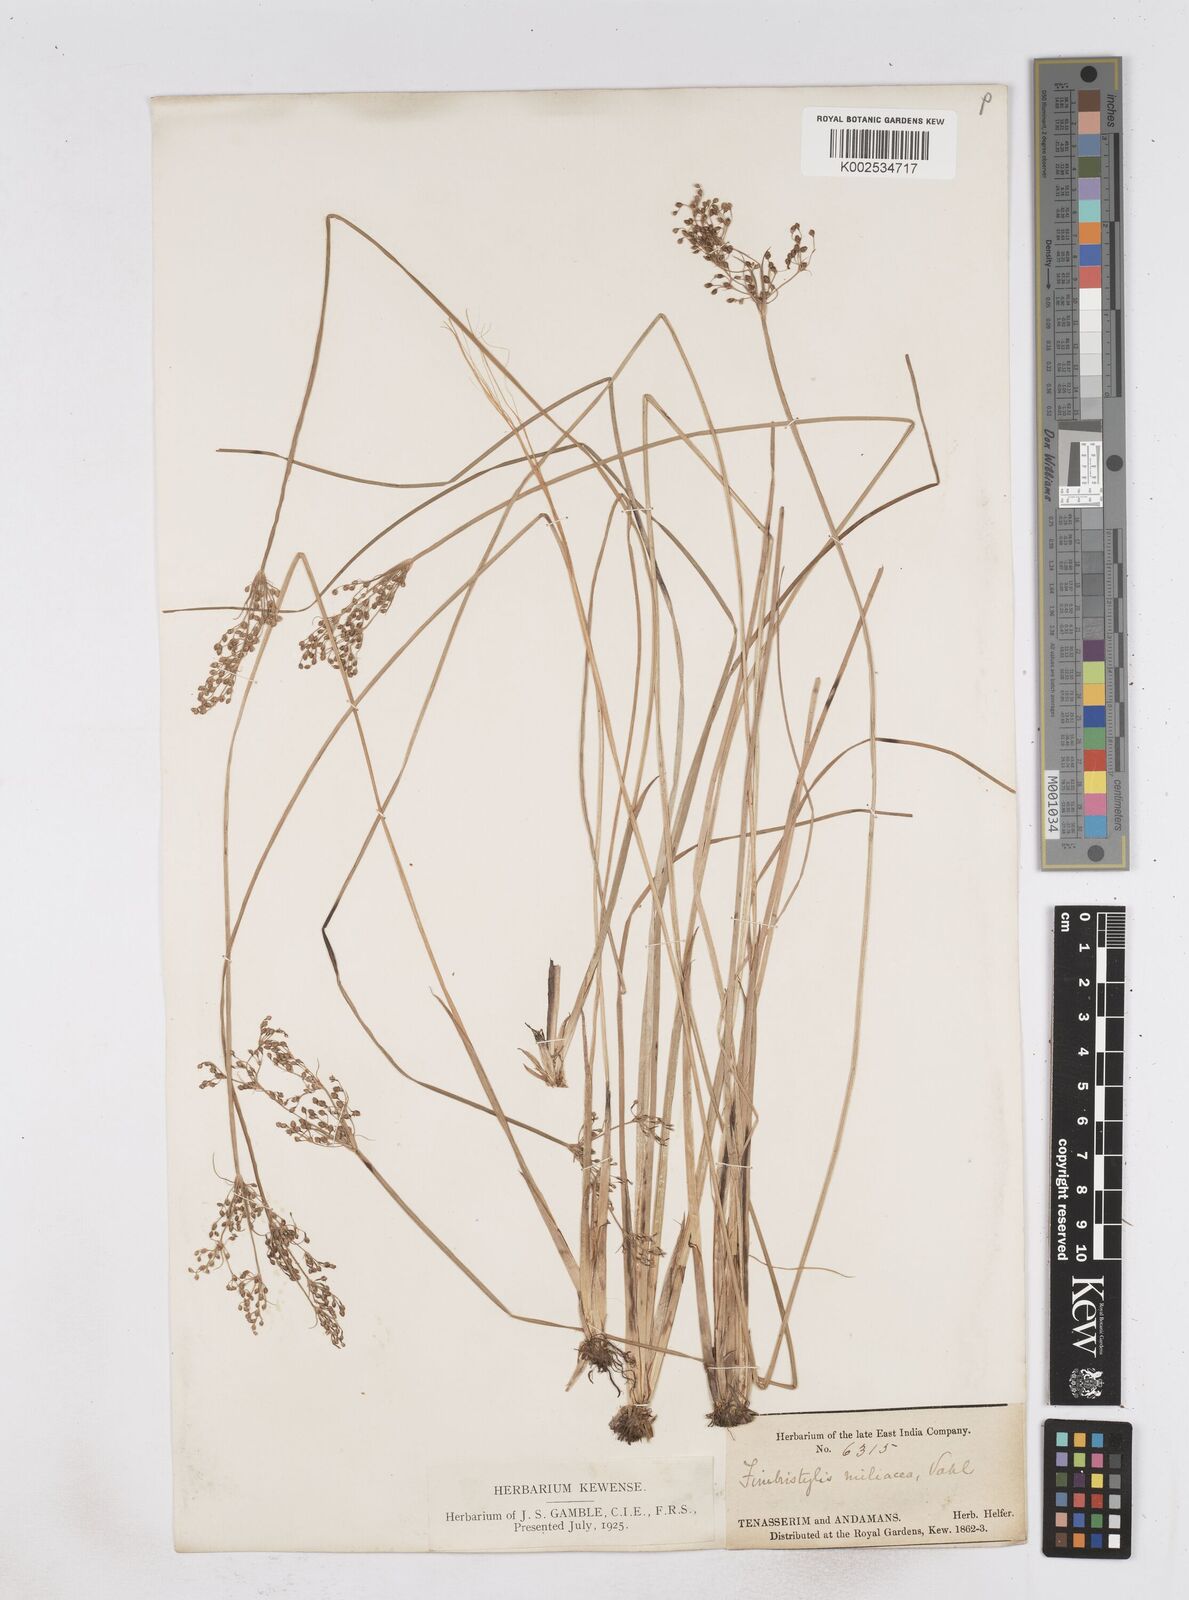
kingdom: Plantae
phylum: Tracheophyta
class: Liliopsida
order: Poales
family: Cyperaceae
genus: Fimbristylis
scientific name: Fimbristylis littoralis
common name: Fimbry
